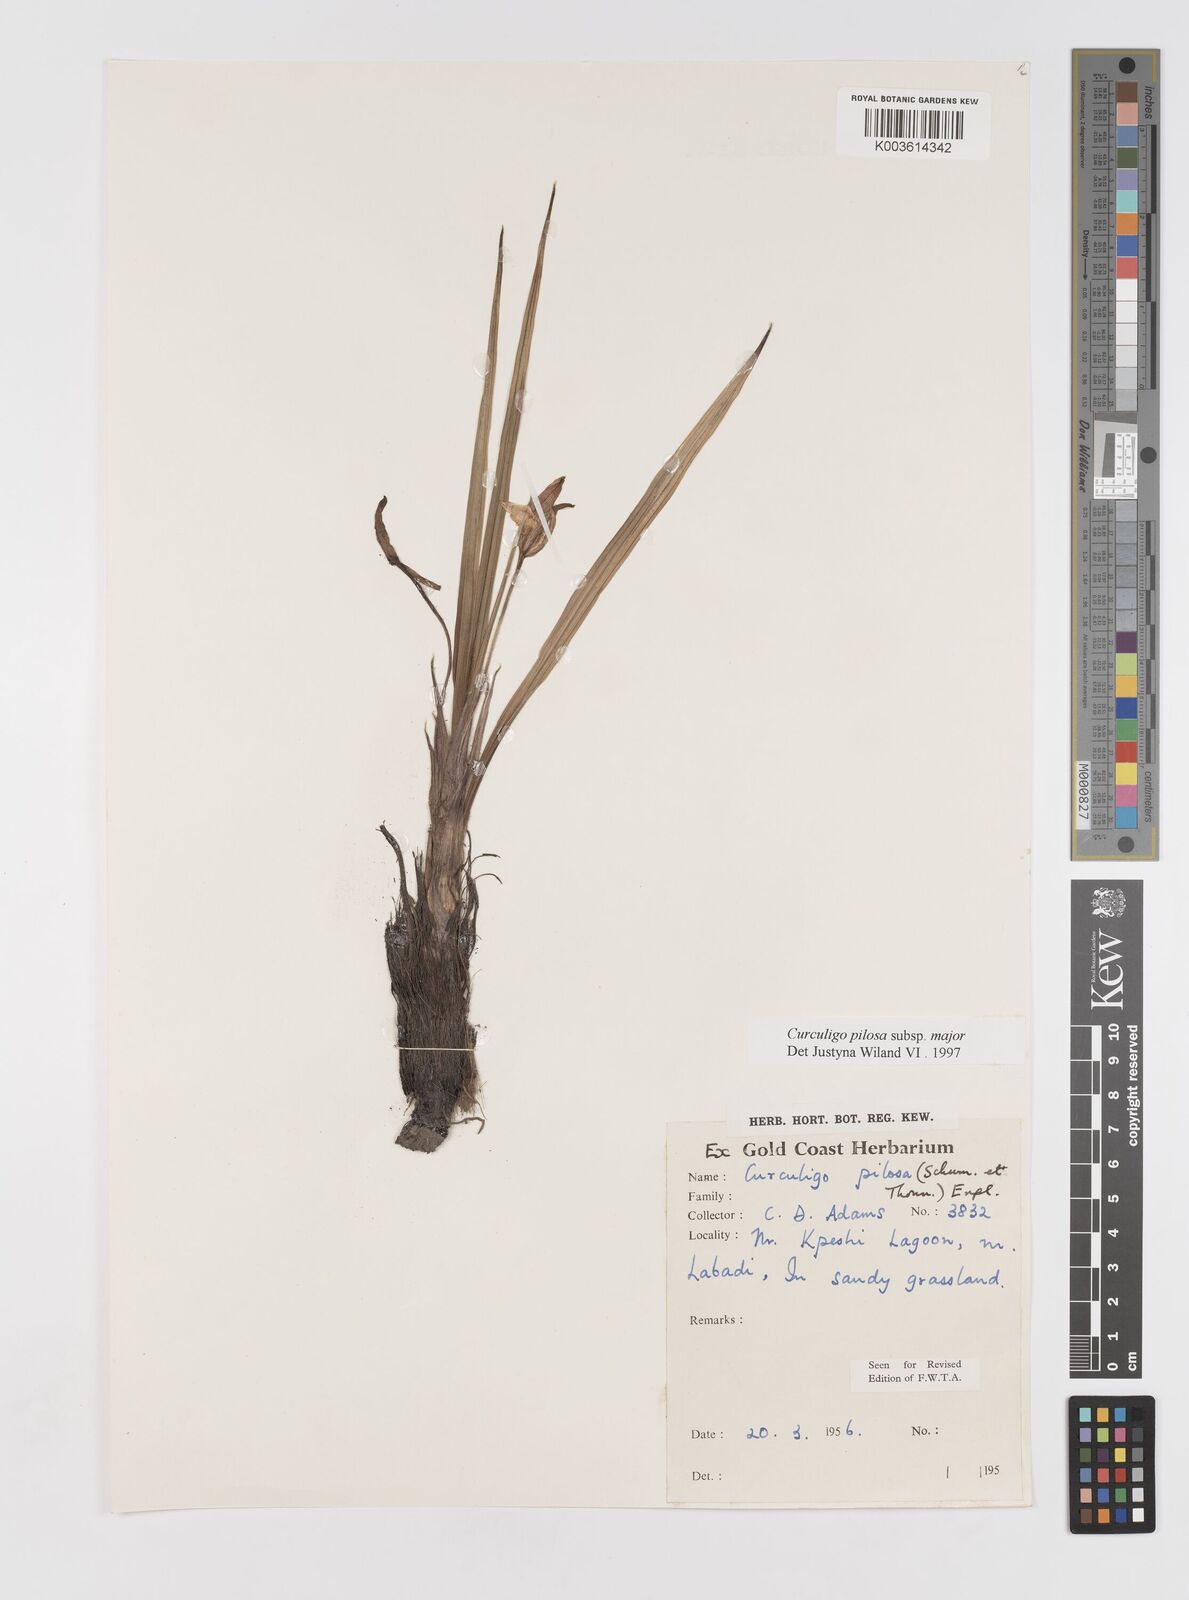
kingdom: Plantae
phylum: Tracheophyta
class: Liliopsida
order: Asparagales
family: Hypoxidaceae
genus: Curculigo
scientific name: Curculigo pilosa
